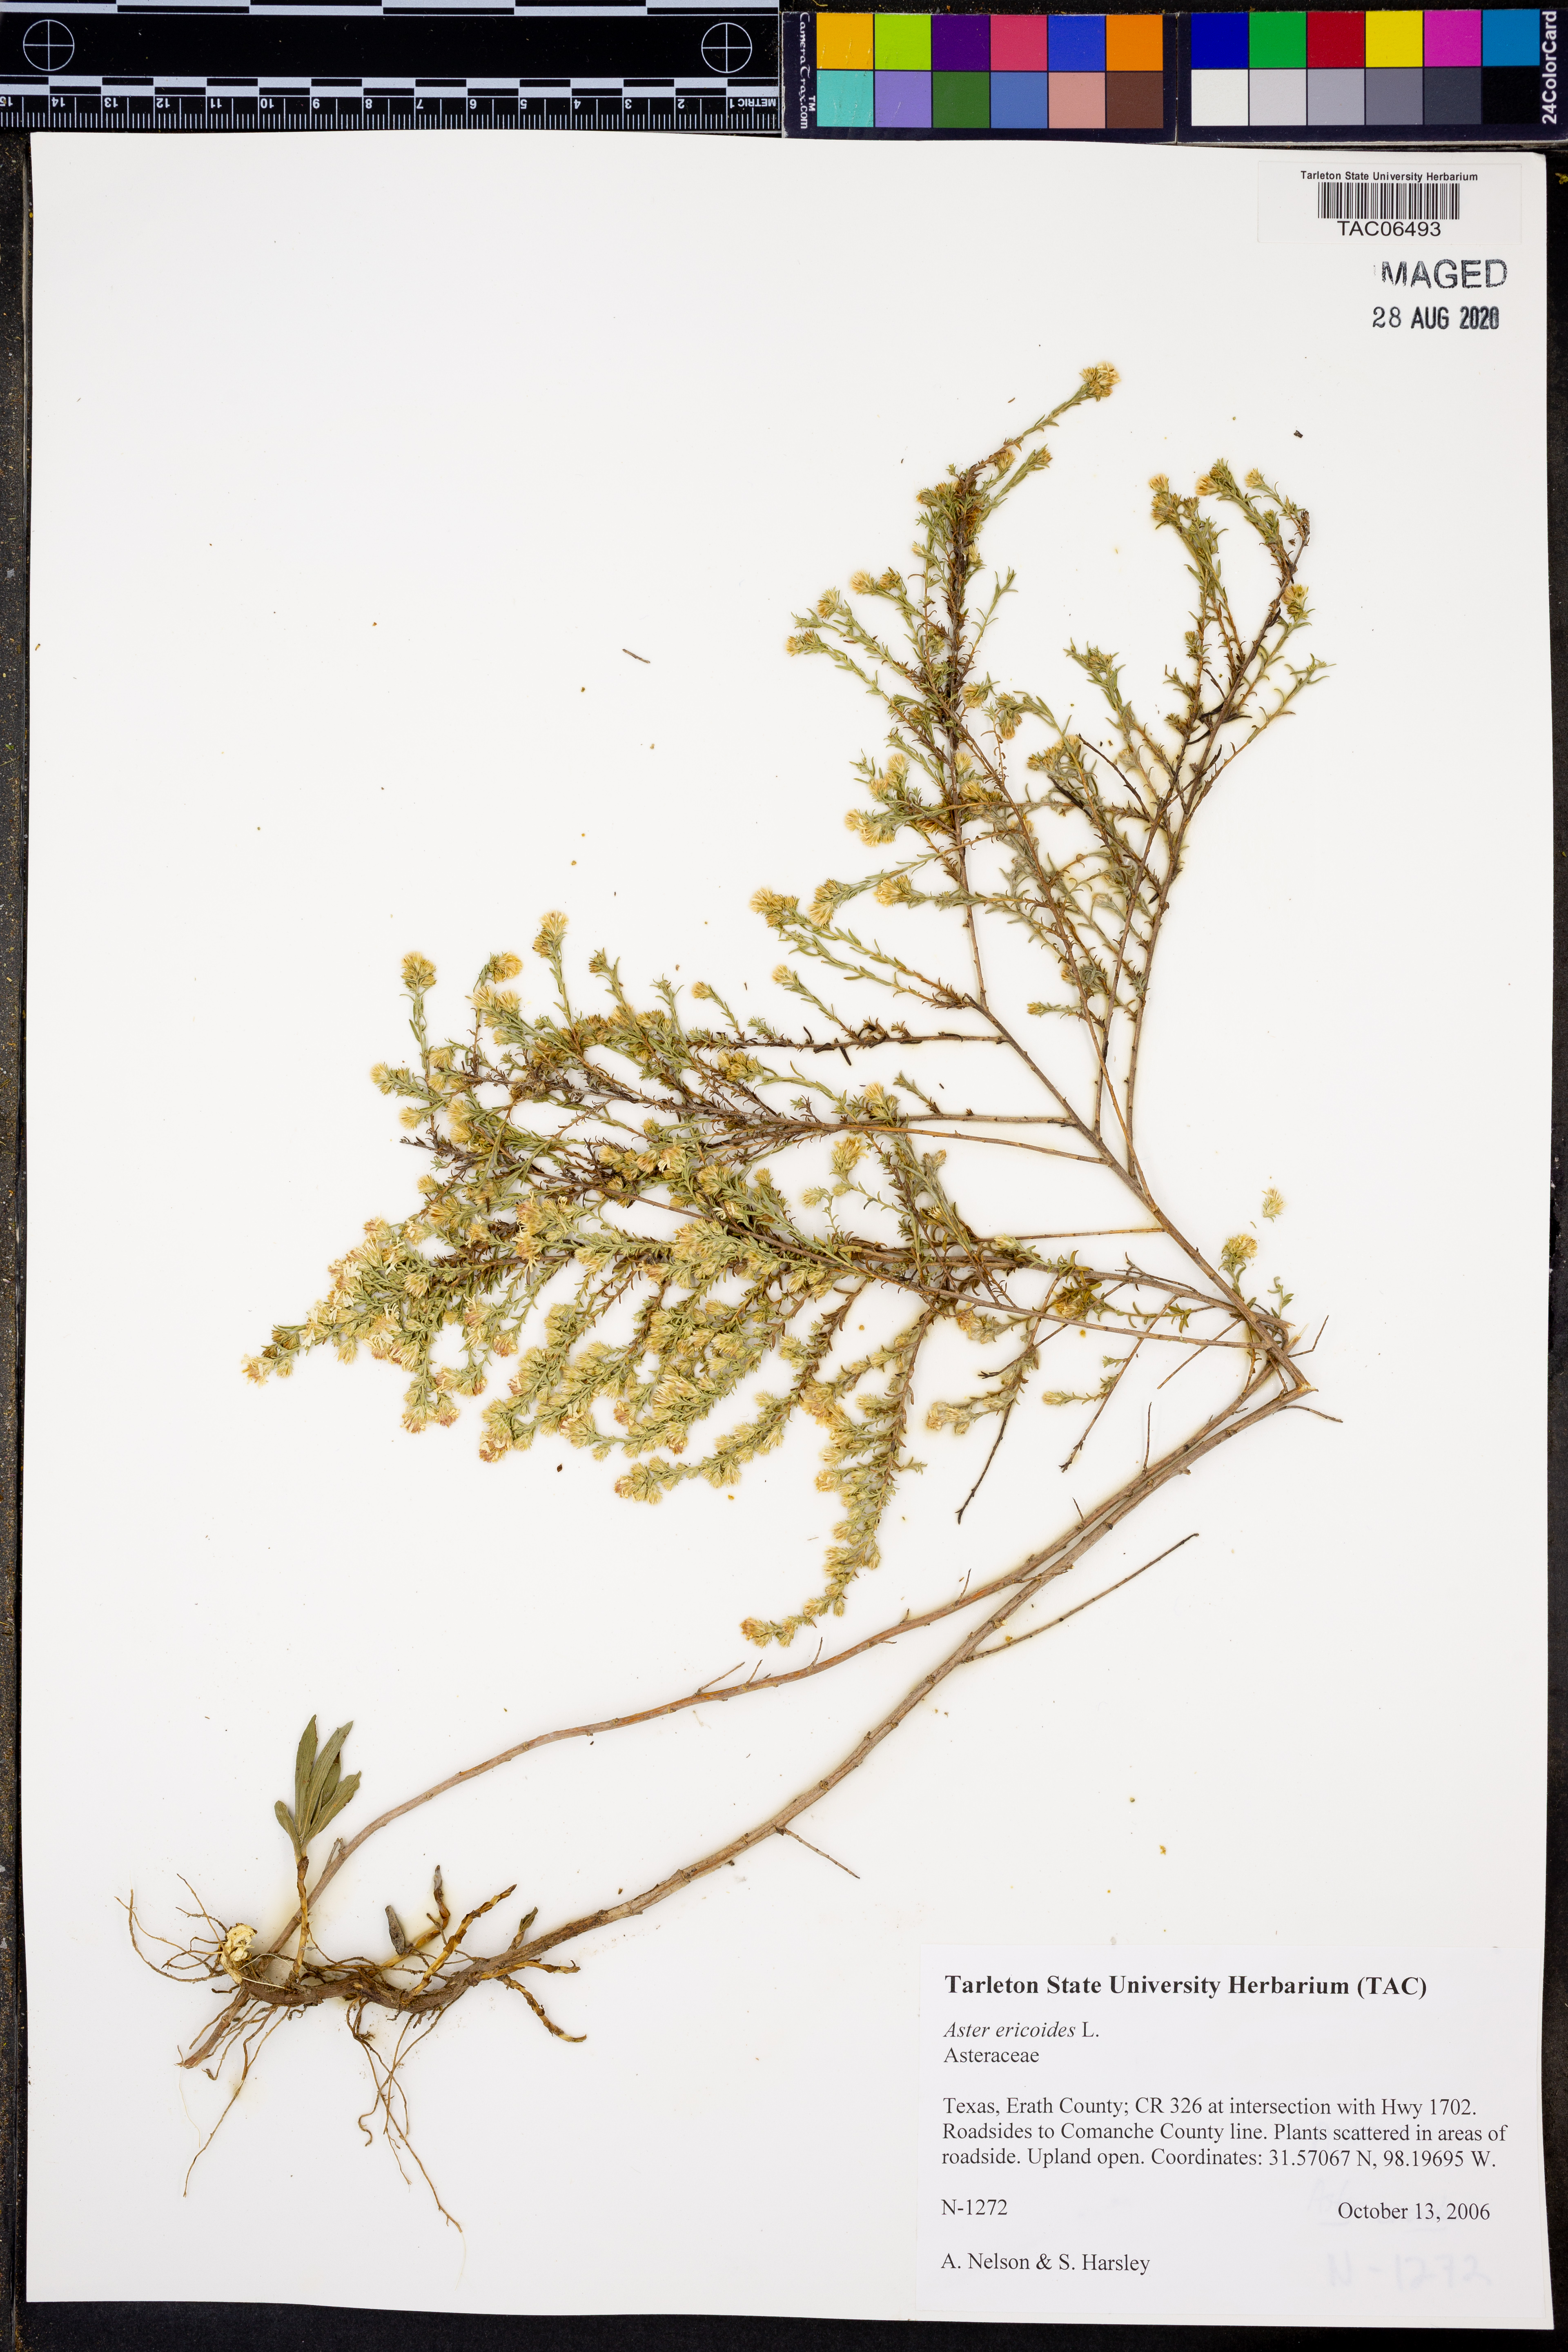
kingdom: Plantae
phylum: Tracheophyta
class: Magnoliopsida
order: Asterales
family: Asteraceae
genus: Symphyotrichum
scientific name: Symphyotrichum ericoides
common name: Heath aster
